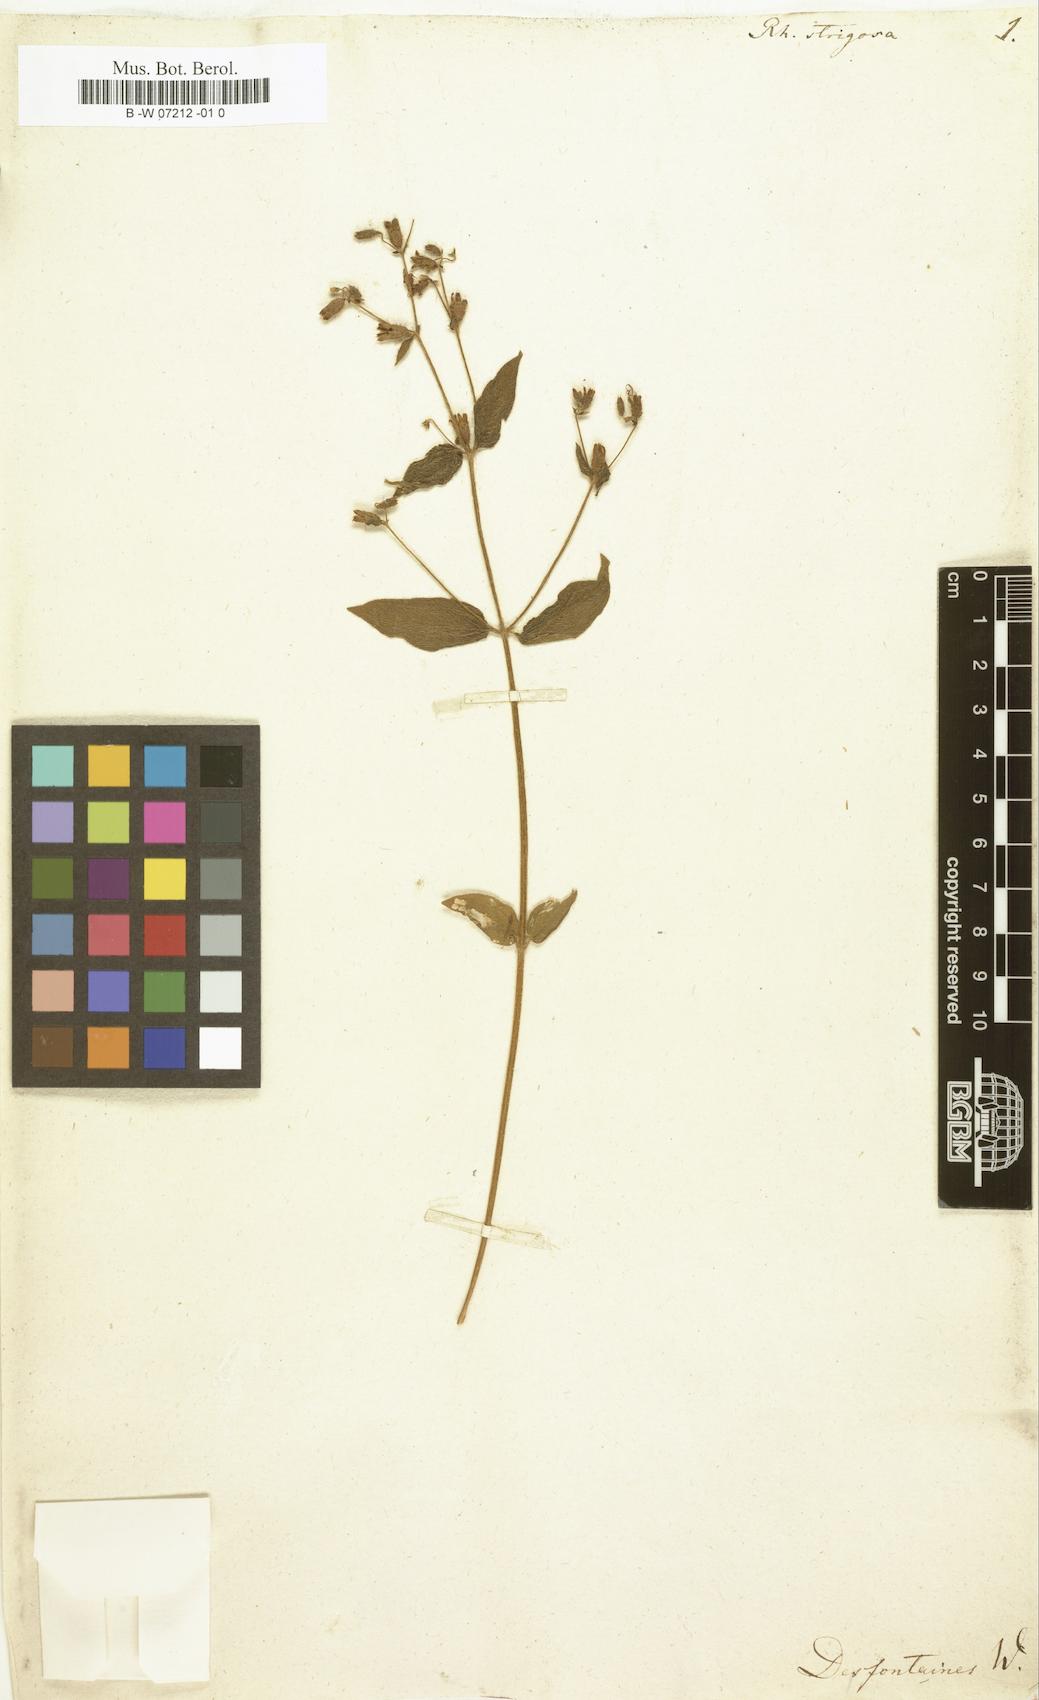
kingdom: Plantae
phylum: Tracheophyta
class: Magnoliopsida
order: Myrtales
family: Melastomataceae
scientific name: Melastomataceae
